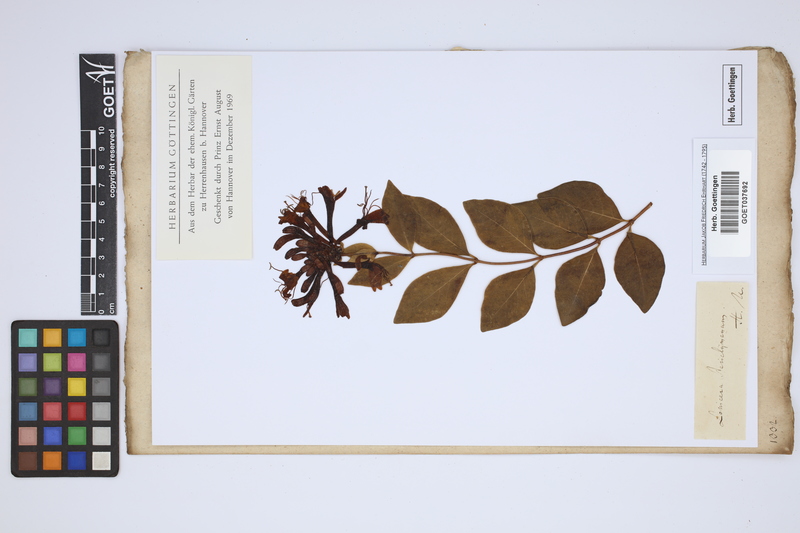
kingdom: Plantae
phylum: Tracheophyta
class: Magnoliopsida
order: Dipsacales
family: Caprifoliaceae
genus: Lonicera
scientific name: Lonicera periclymenum
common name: European honeysuckle
